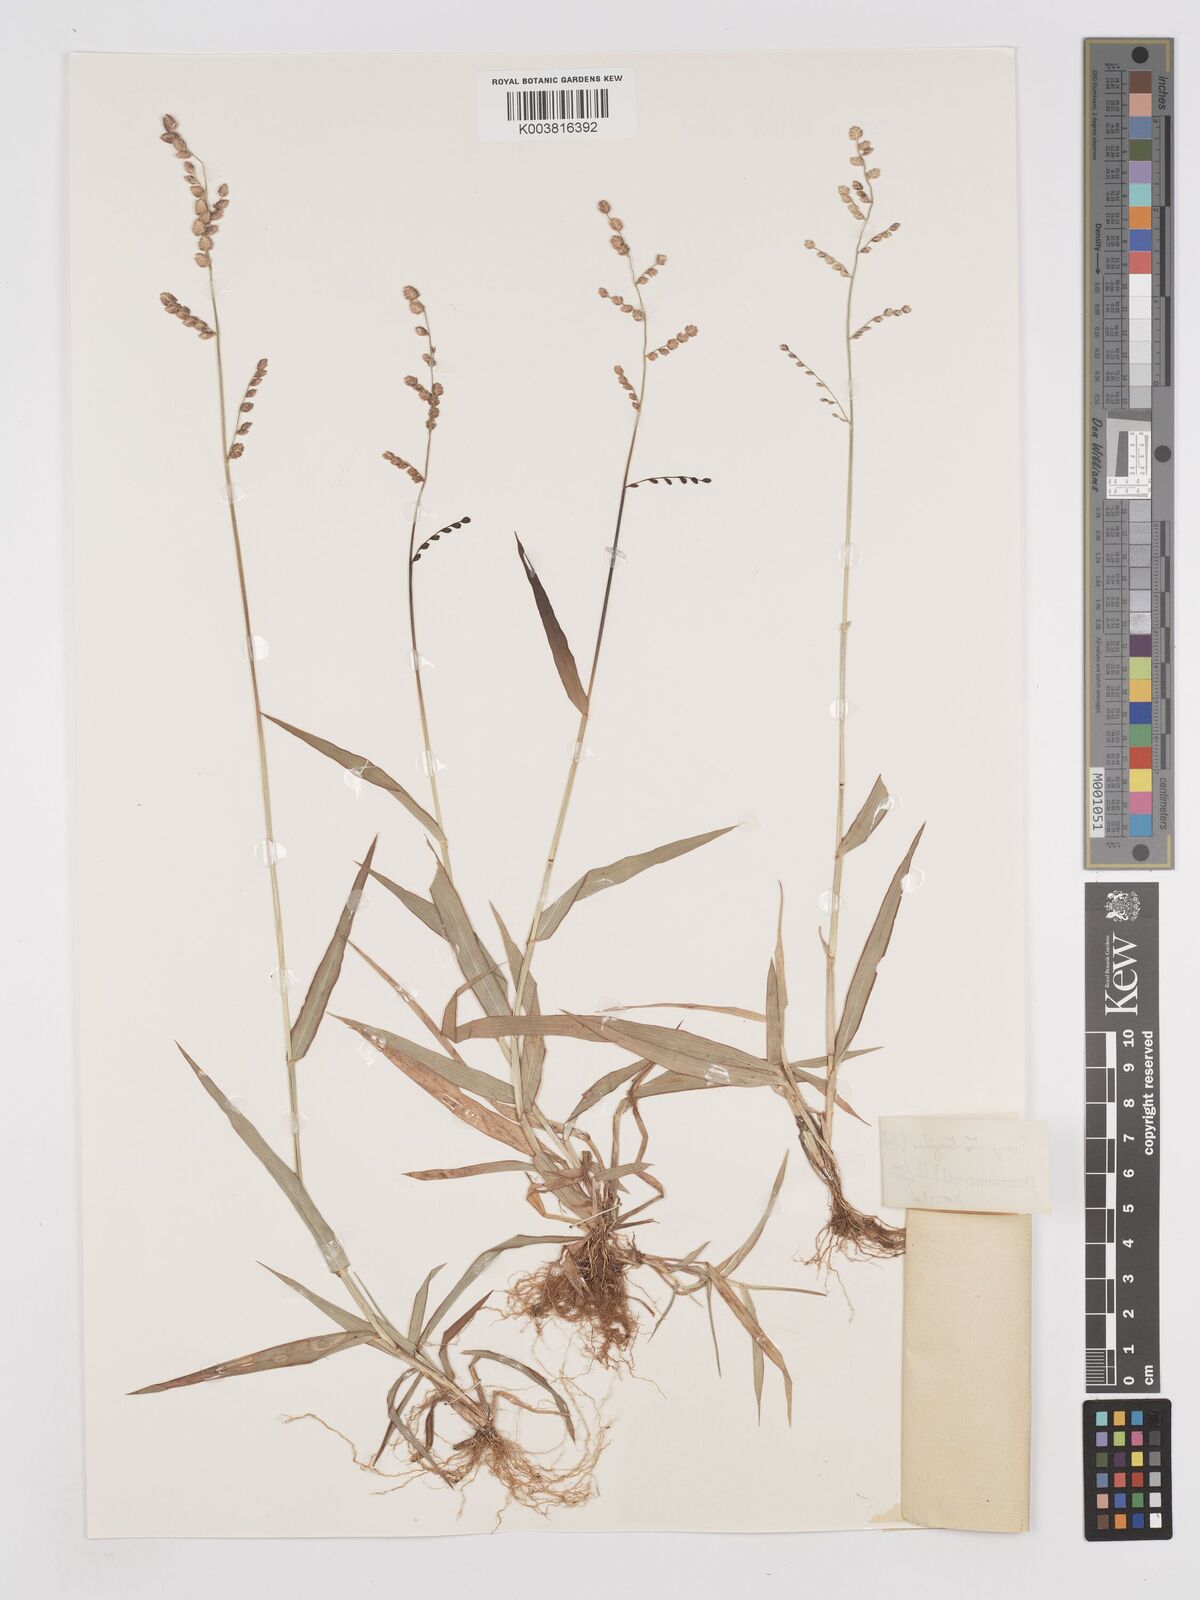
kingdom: Plantae
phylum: Tracheophyta
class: Liliopsida
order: Poales
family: Poaceae
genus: Eragrostis
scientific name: Eragrostis turgida
